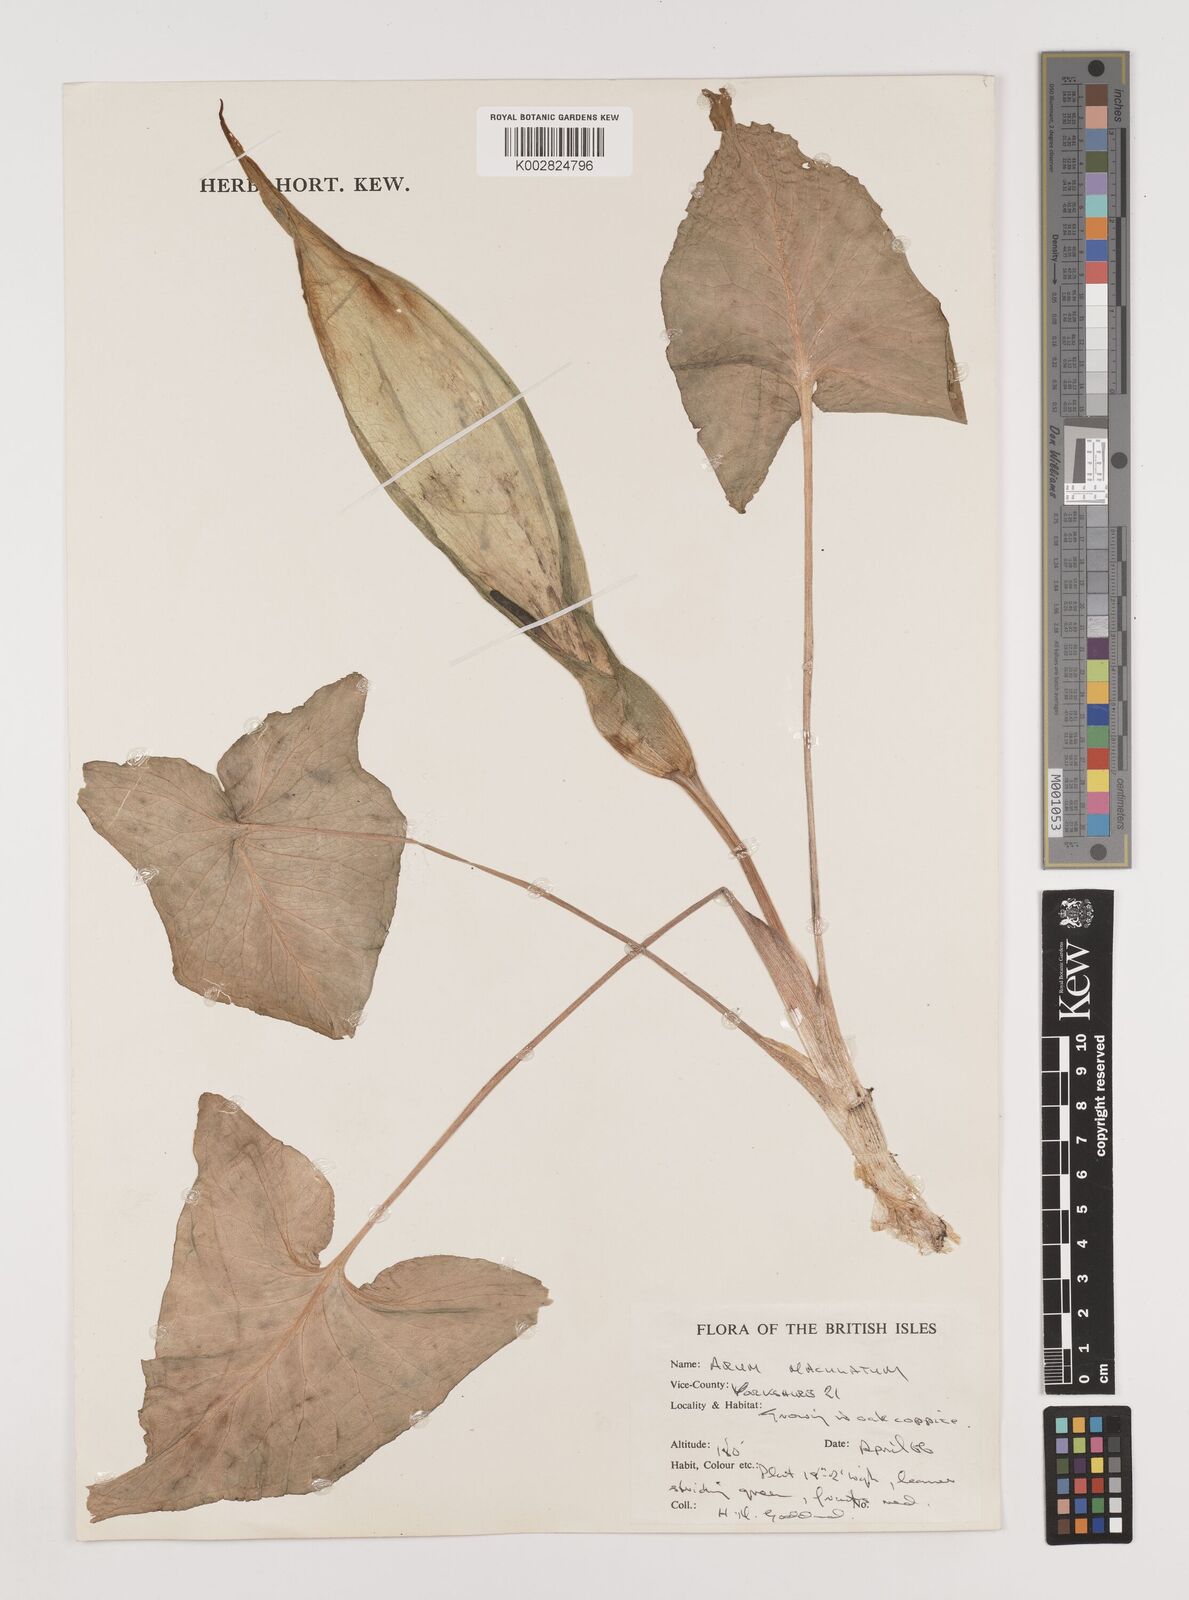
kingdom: Plantae
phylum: Tracheophyta
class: Liliopsida
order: Alismatales
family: Araceae
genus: Arum
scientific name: Arum maculatum
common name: Lords-and-ladies
